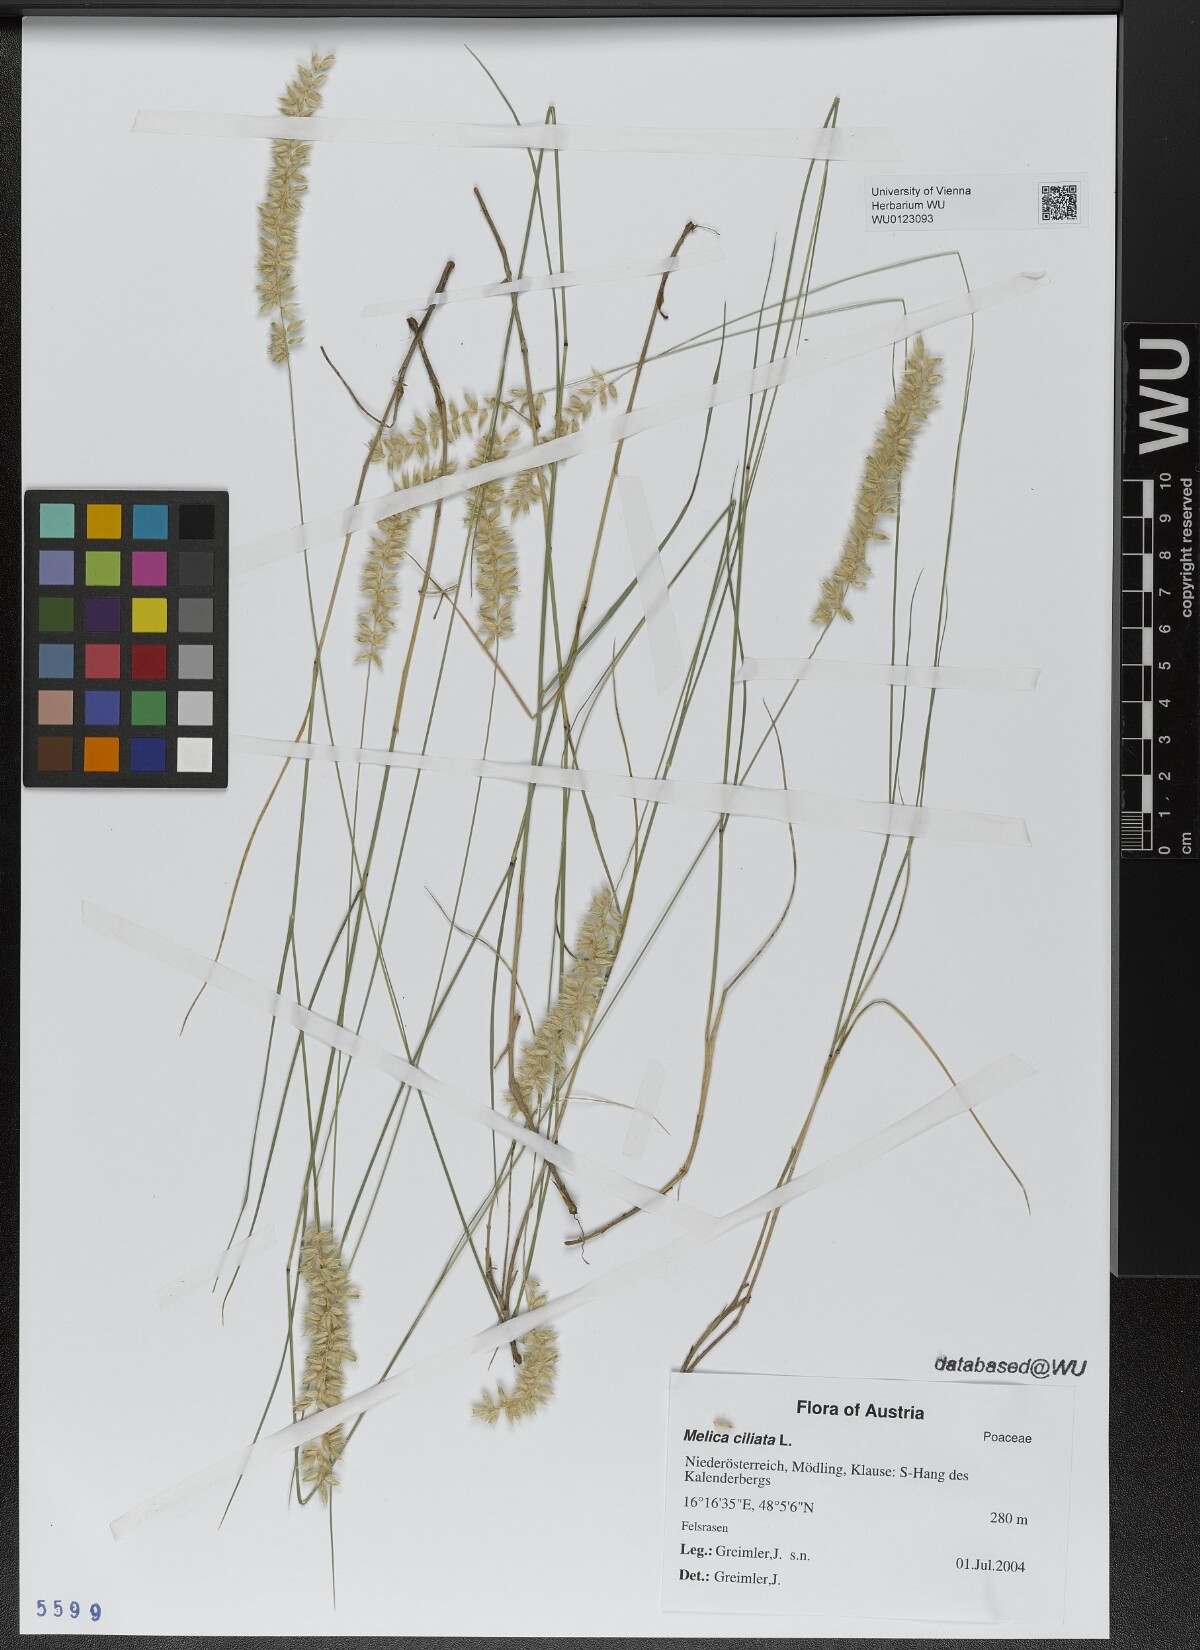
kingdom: Plantae
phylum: Tracheophyta
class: Liliopsida
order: Poales
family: Poaceae
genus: Melica
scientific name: Melica ciliata
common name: Hairy melicgrass
